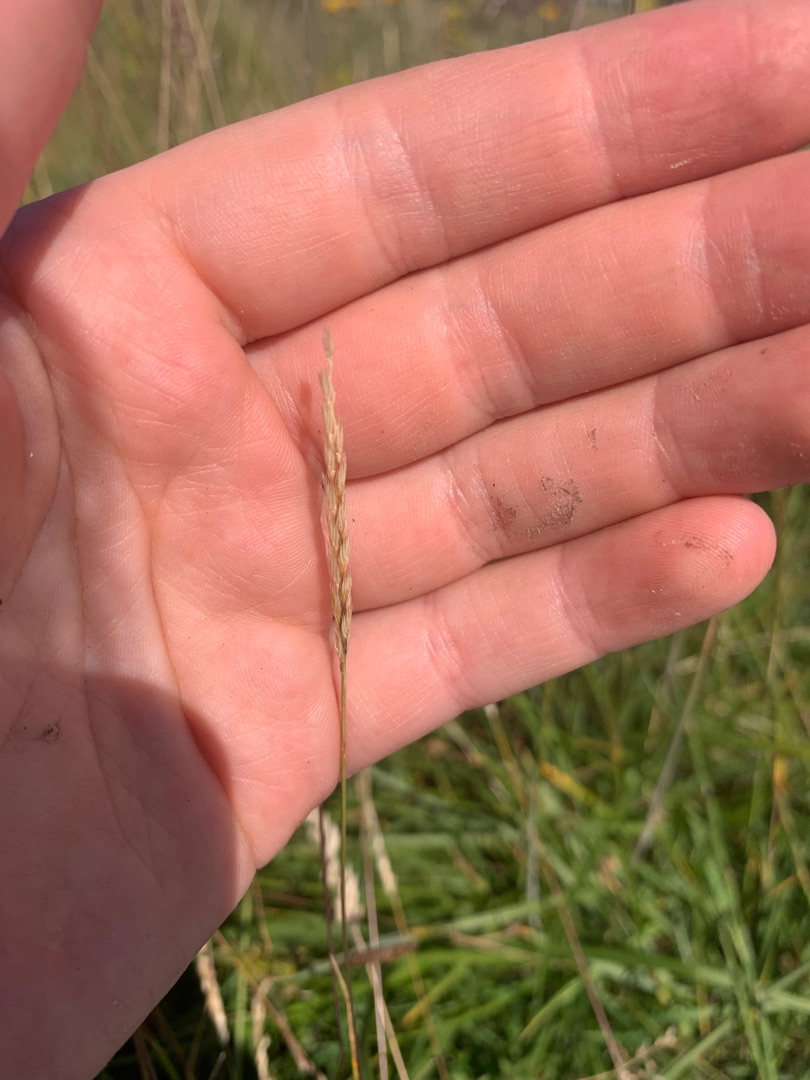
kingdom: Plantae
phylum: Tracheophyta
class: Liliopsida
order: Poales
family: Poaceae
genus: Cynosurus
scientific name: Cynosurus cristatus
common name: Kamgræs
